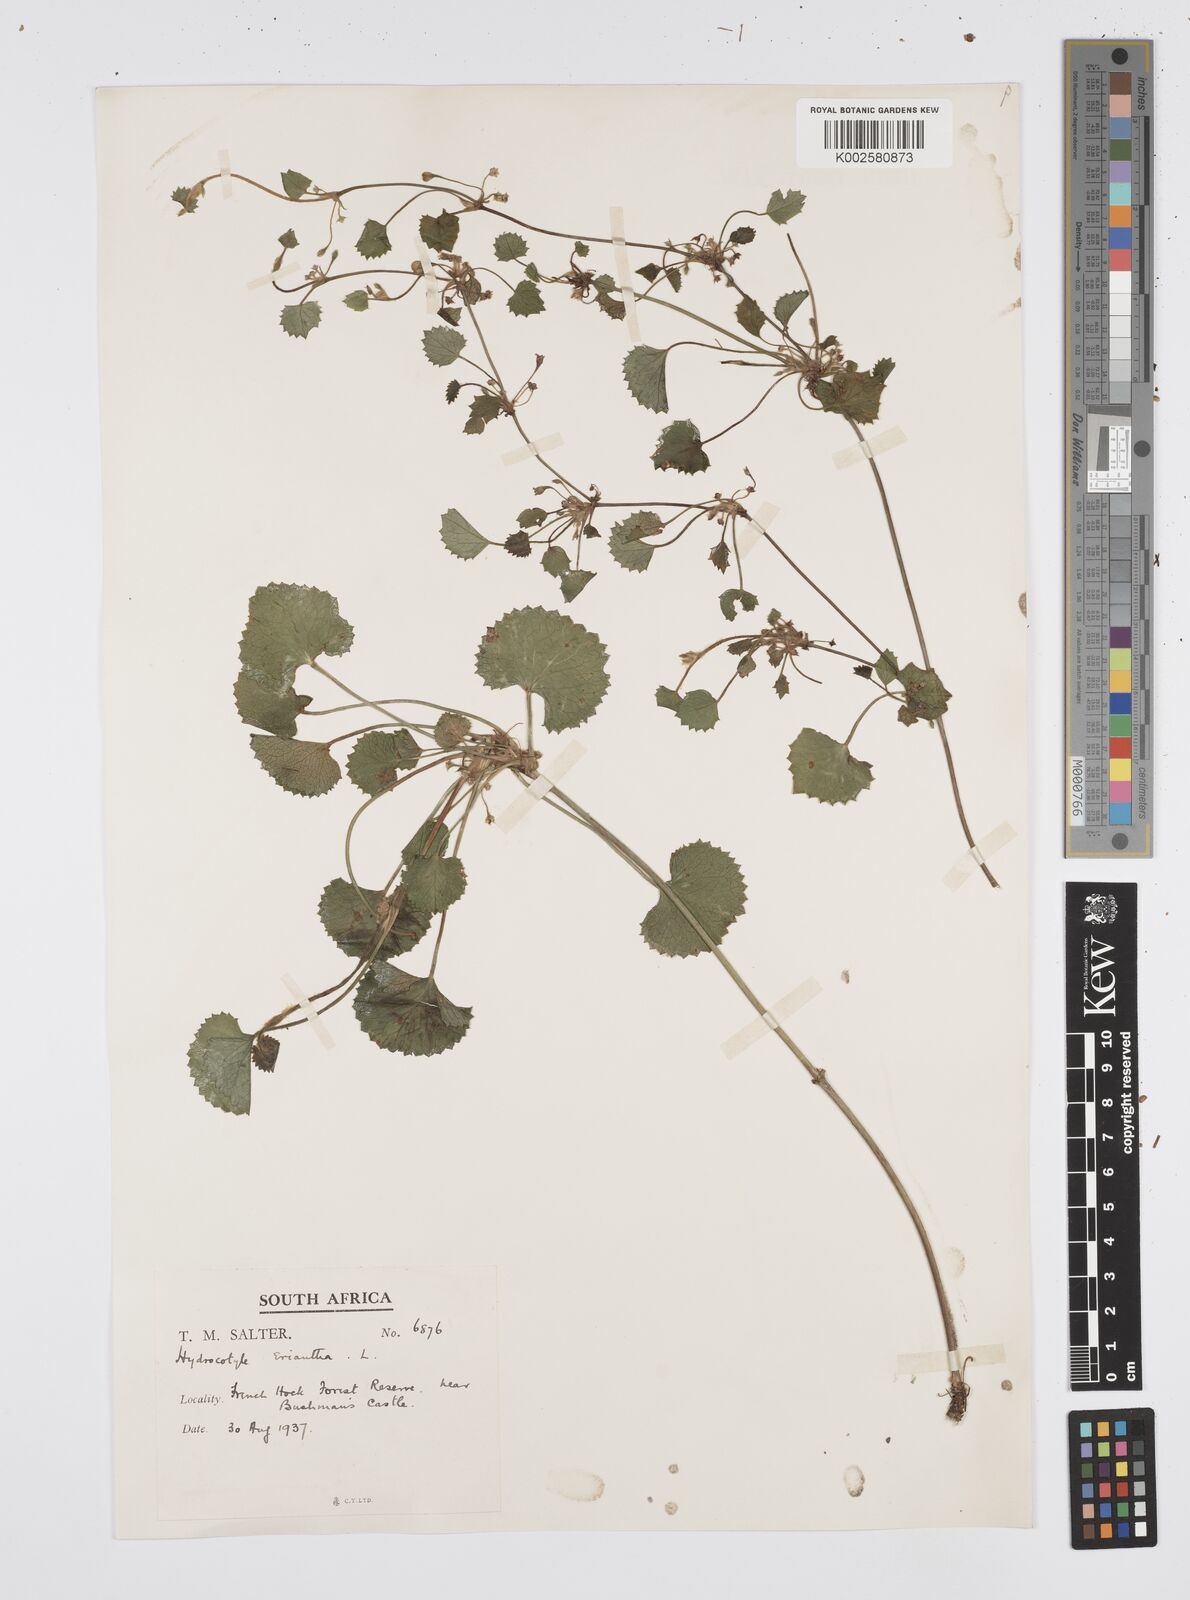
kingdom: Plantae
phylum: Tracheophyta
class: Magnoliopsida
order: Apiales
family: Apiaceae
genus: Centella
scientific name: Centella eriantha
